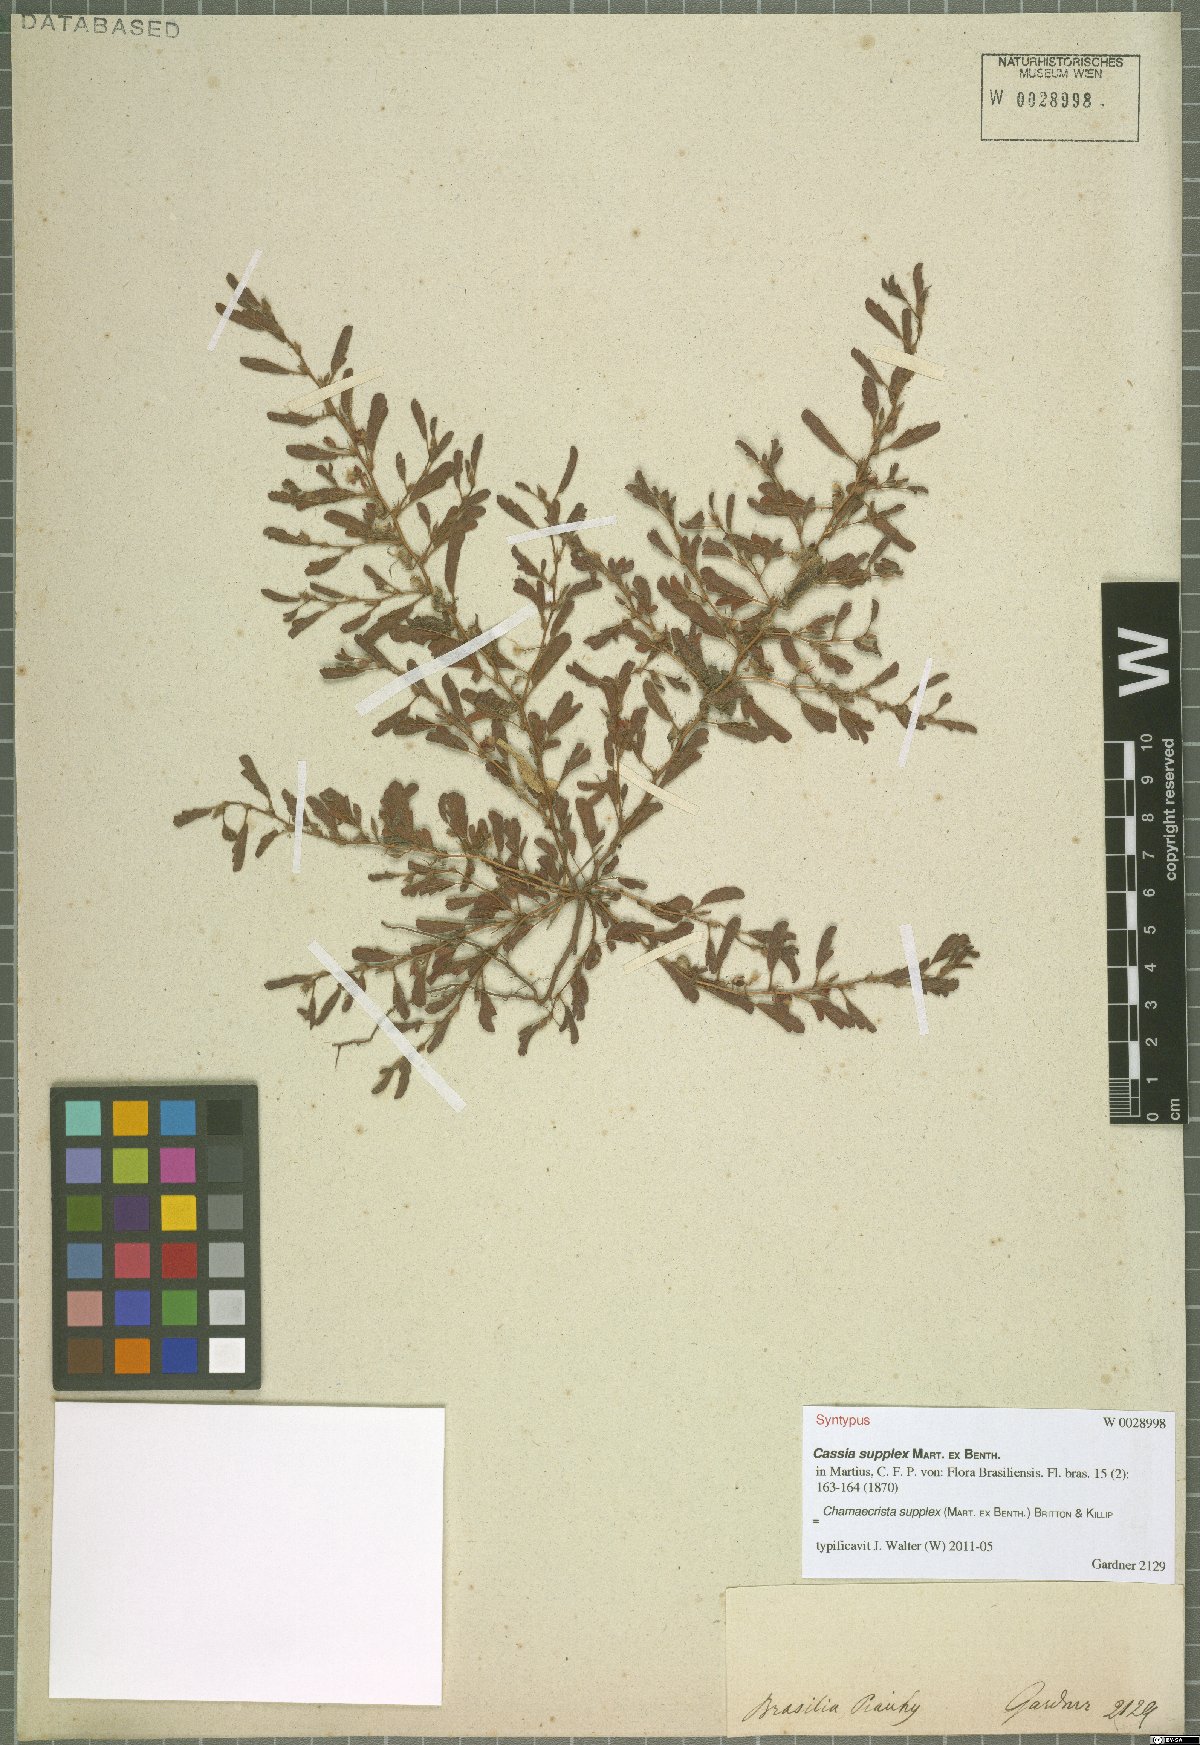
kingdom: Plantae
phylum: Tracheophyta
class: Magnoliopsida
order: Fabales
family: Fabaceae
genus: Chamaecrista
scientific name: Chamaecrista supplex
